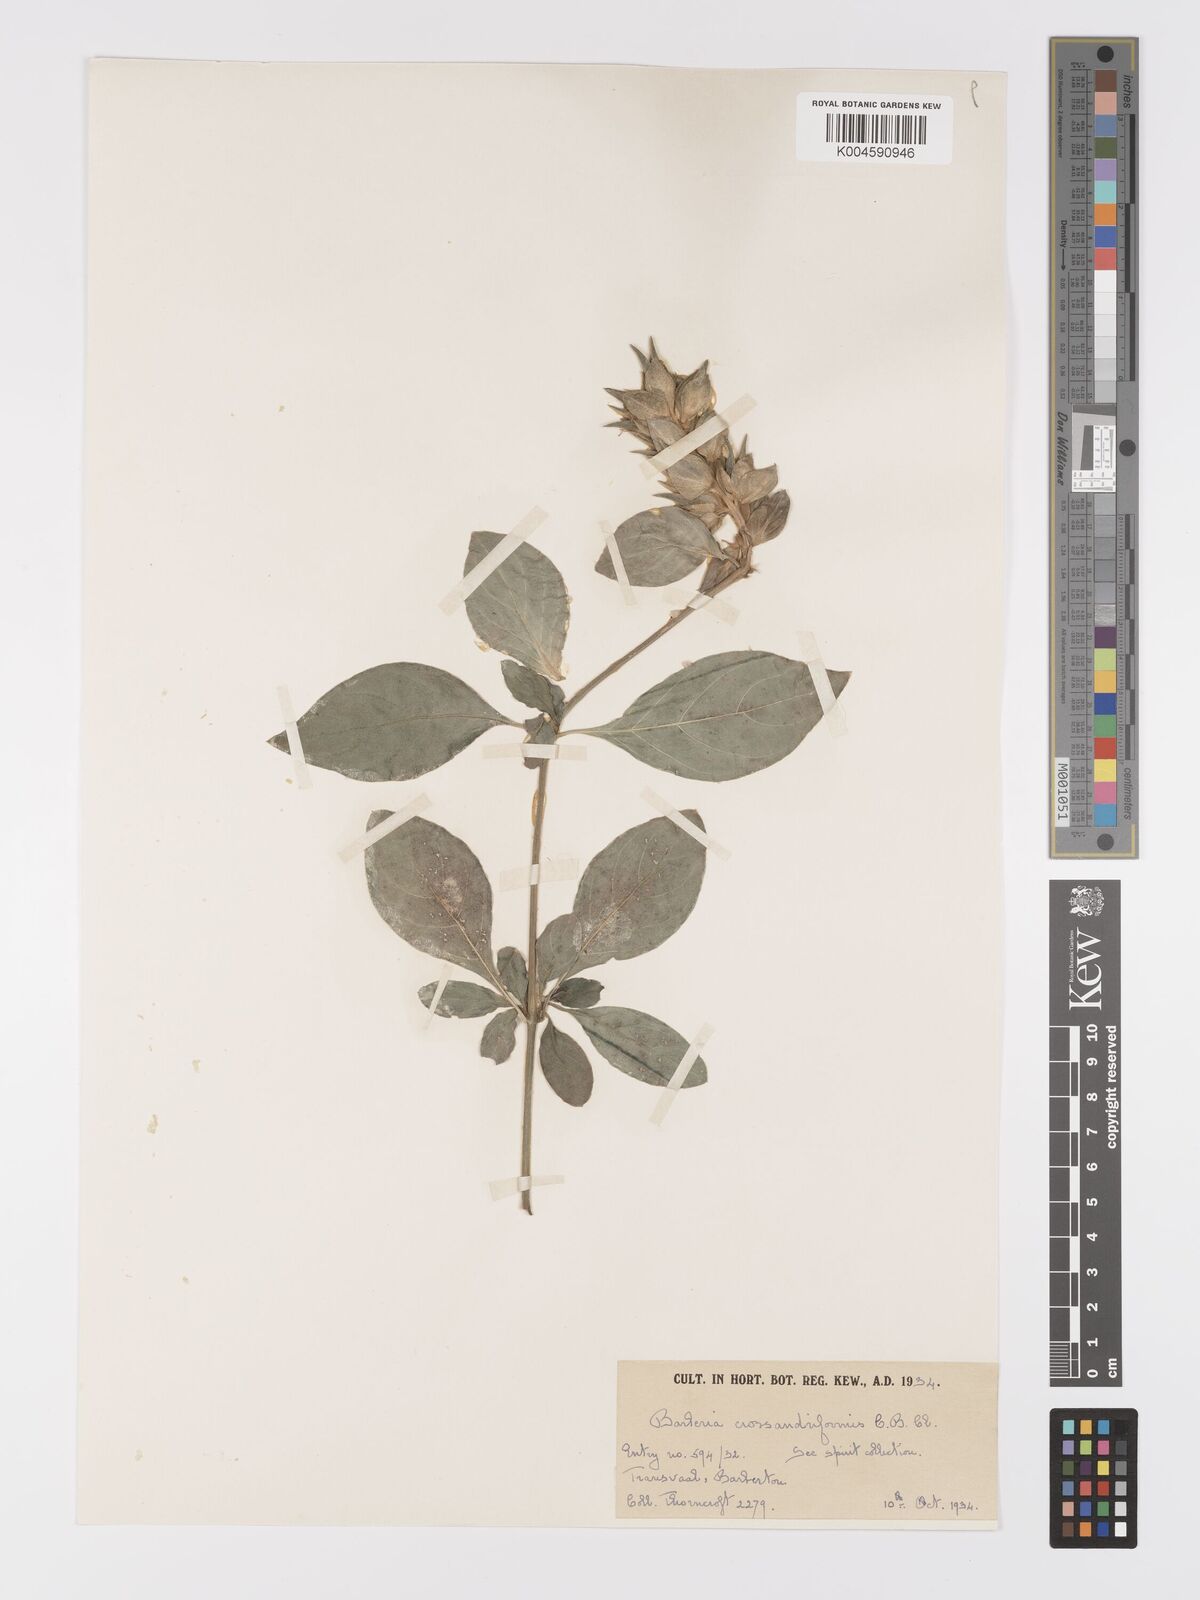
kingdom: Plantae
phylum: Tracheophyta
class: Magnoliopsida
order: Lamiales
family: Acanthaceae
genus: Barleria
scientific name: Barleria crossandriformis
